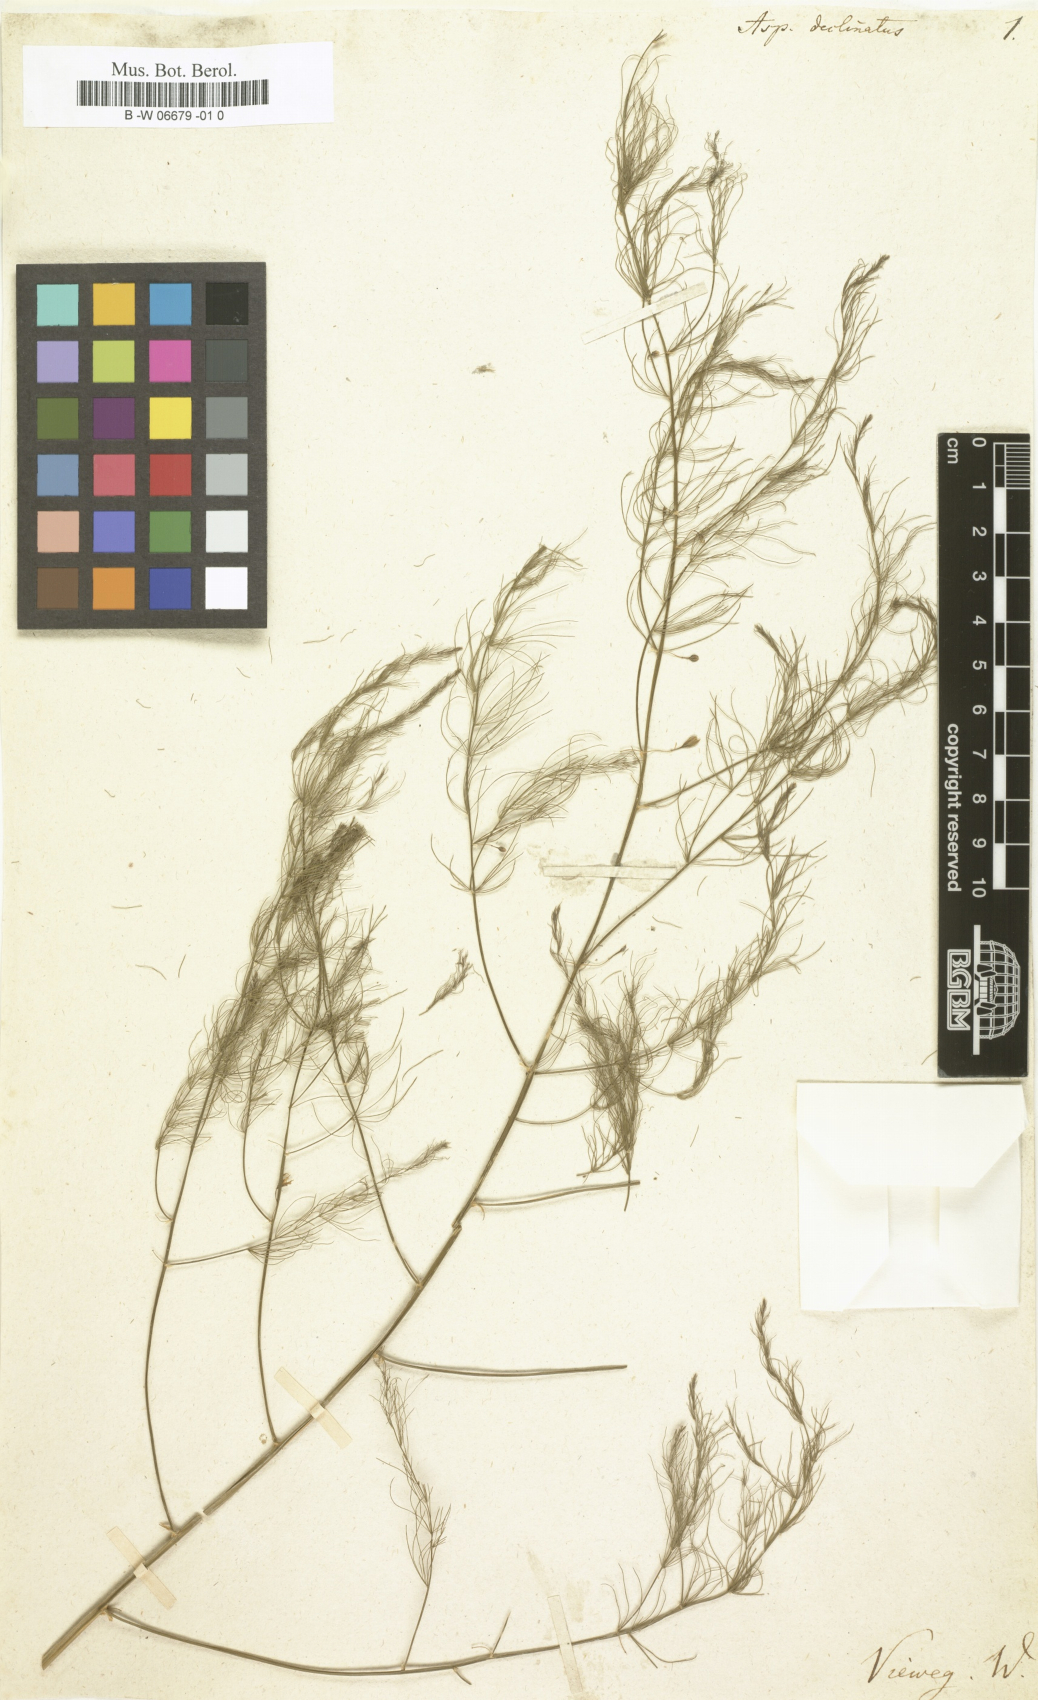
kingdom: Plantae
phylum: Tracheophyta
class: Liliopsida
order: Asparagales
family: Asparagaceae
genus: Asparagus
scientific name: Asparagus declinatus
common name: Bridal-creeper
